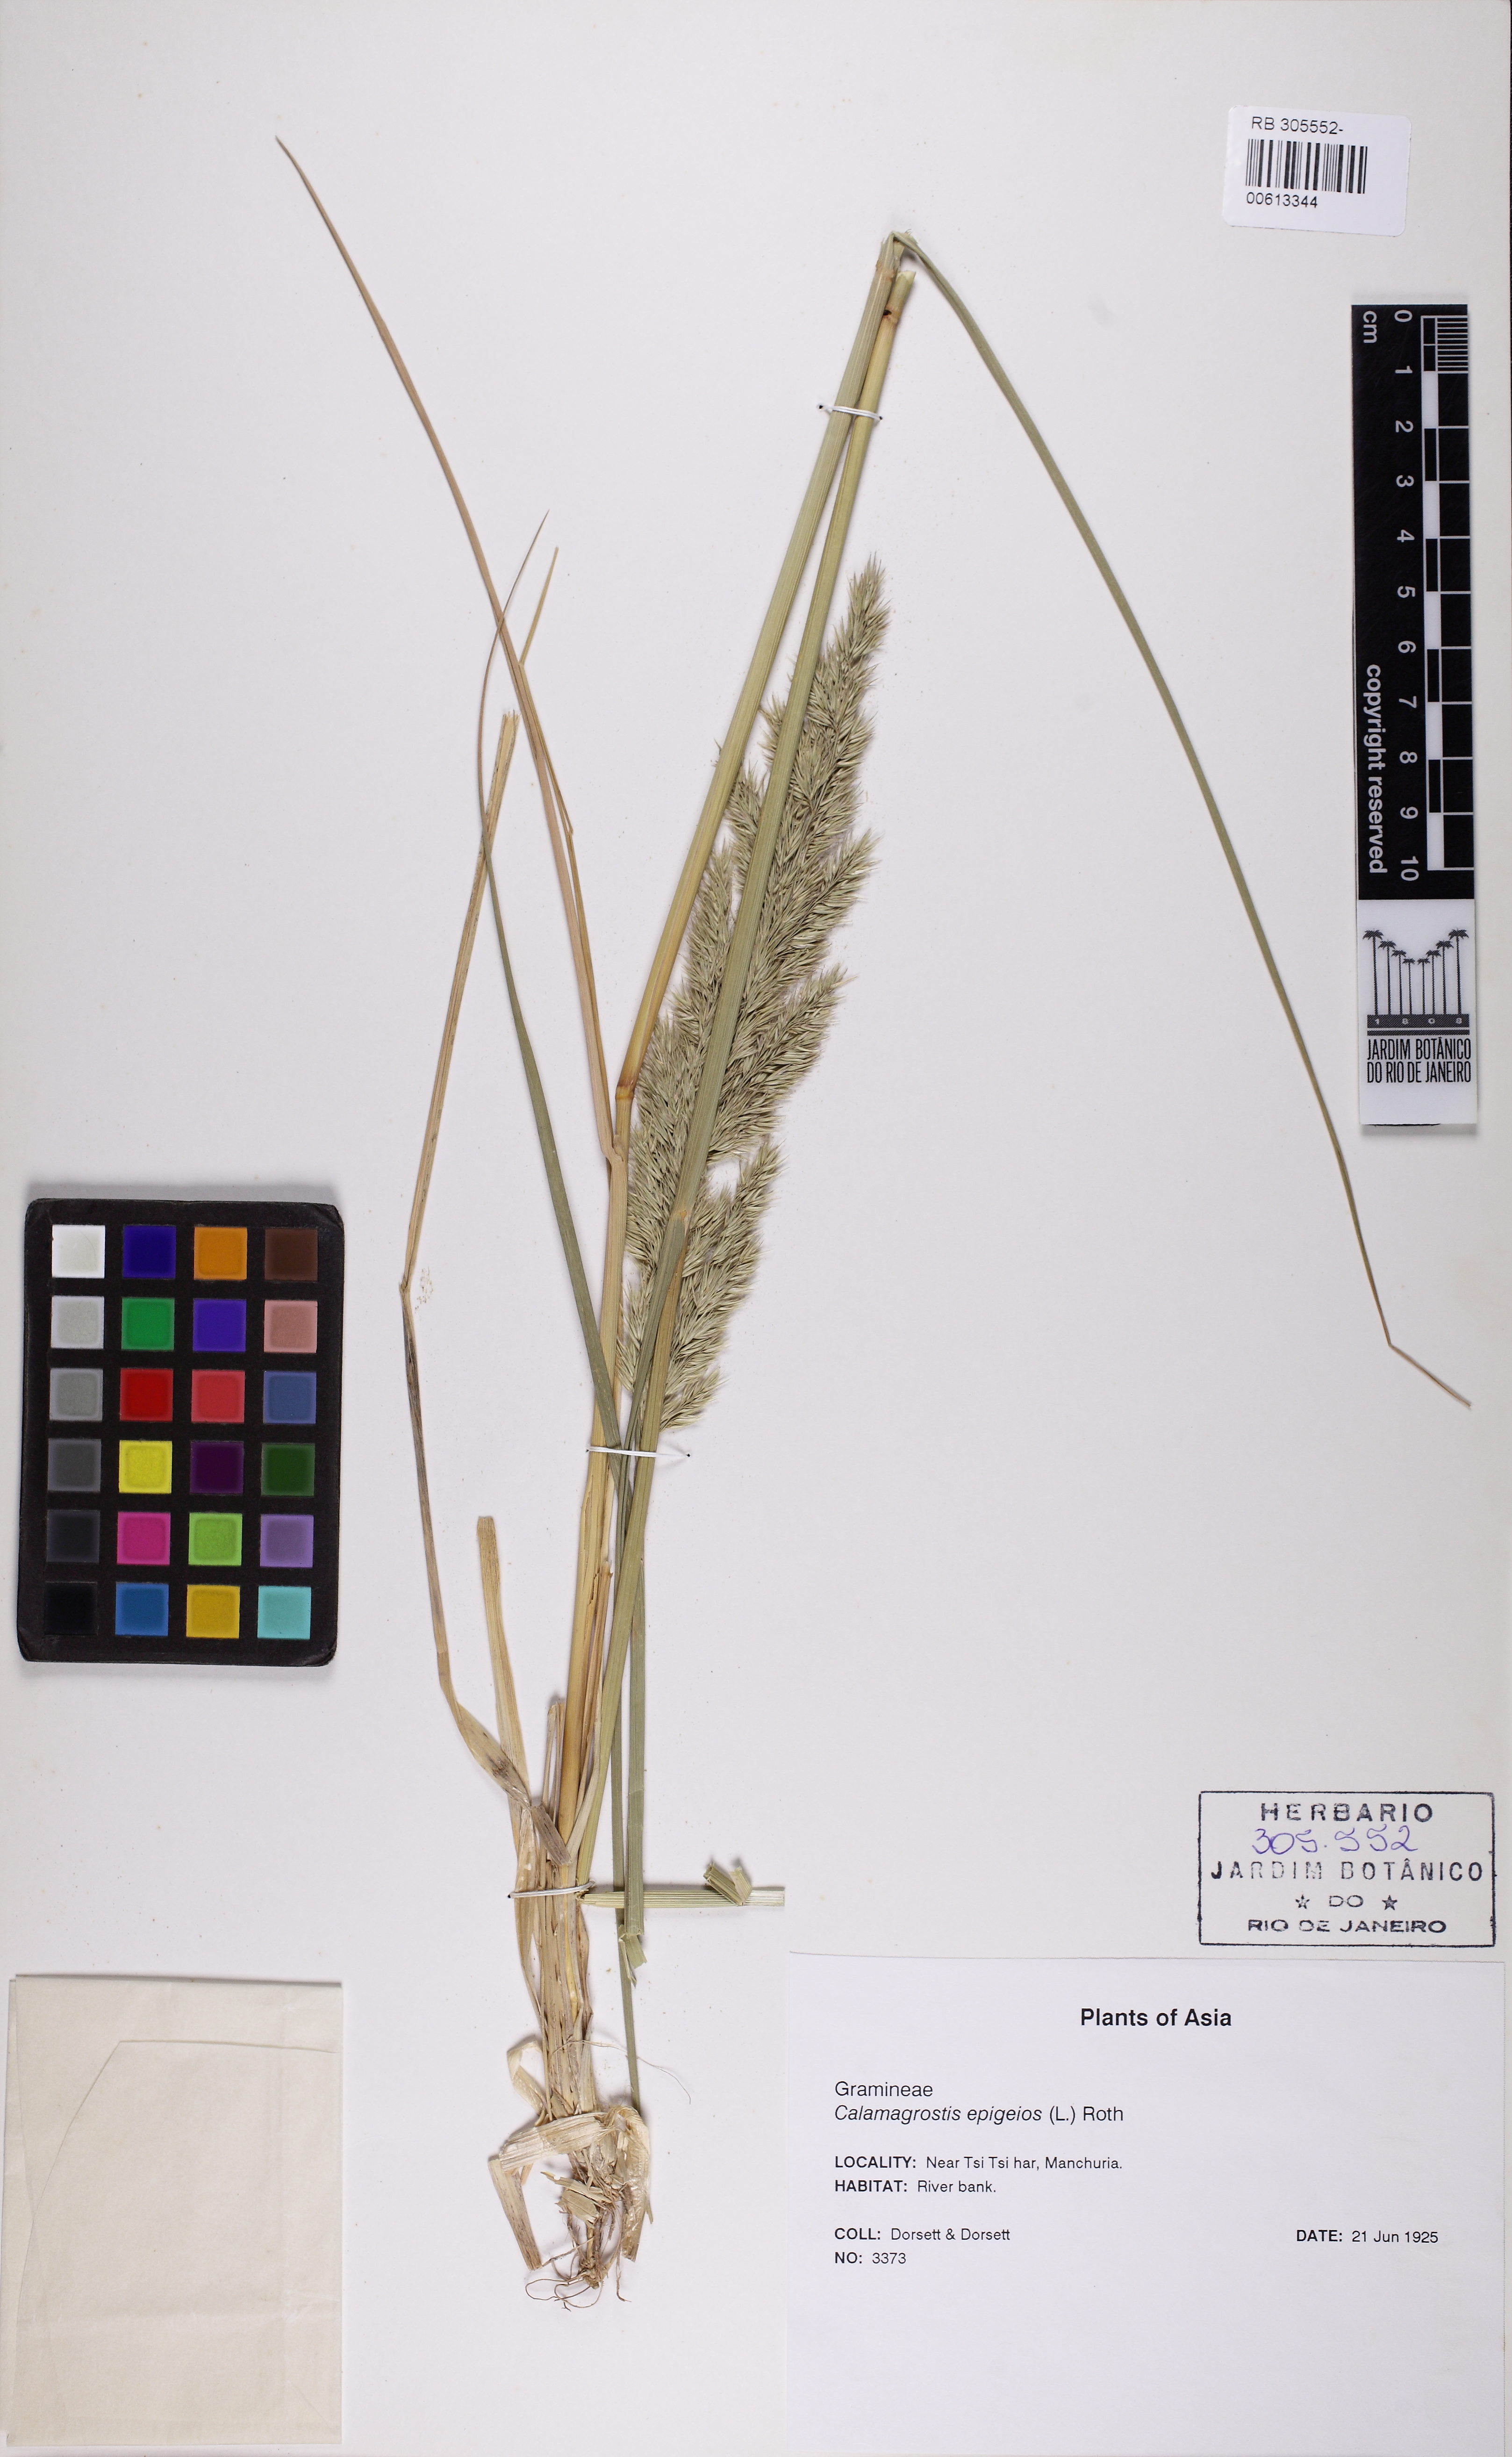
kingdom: Plantae
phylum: Tracheophyta
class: Liliopsida
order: Poales
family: Poaceae
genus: Calamagrostis
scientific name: Calamagrostis epigejos
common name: Wood small-reed
